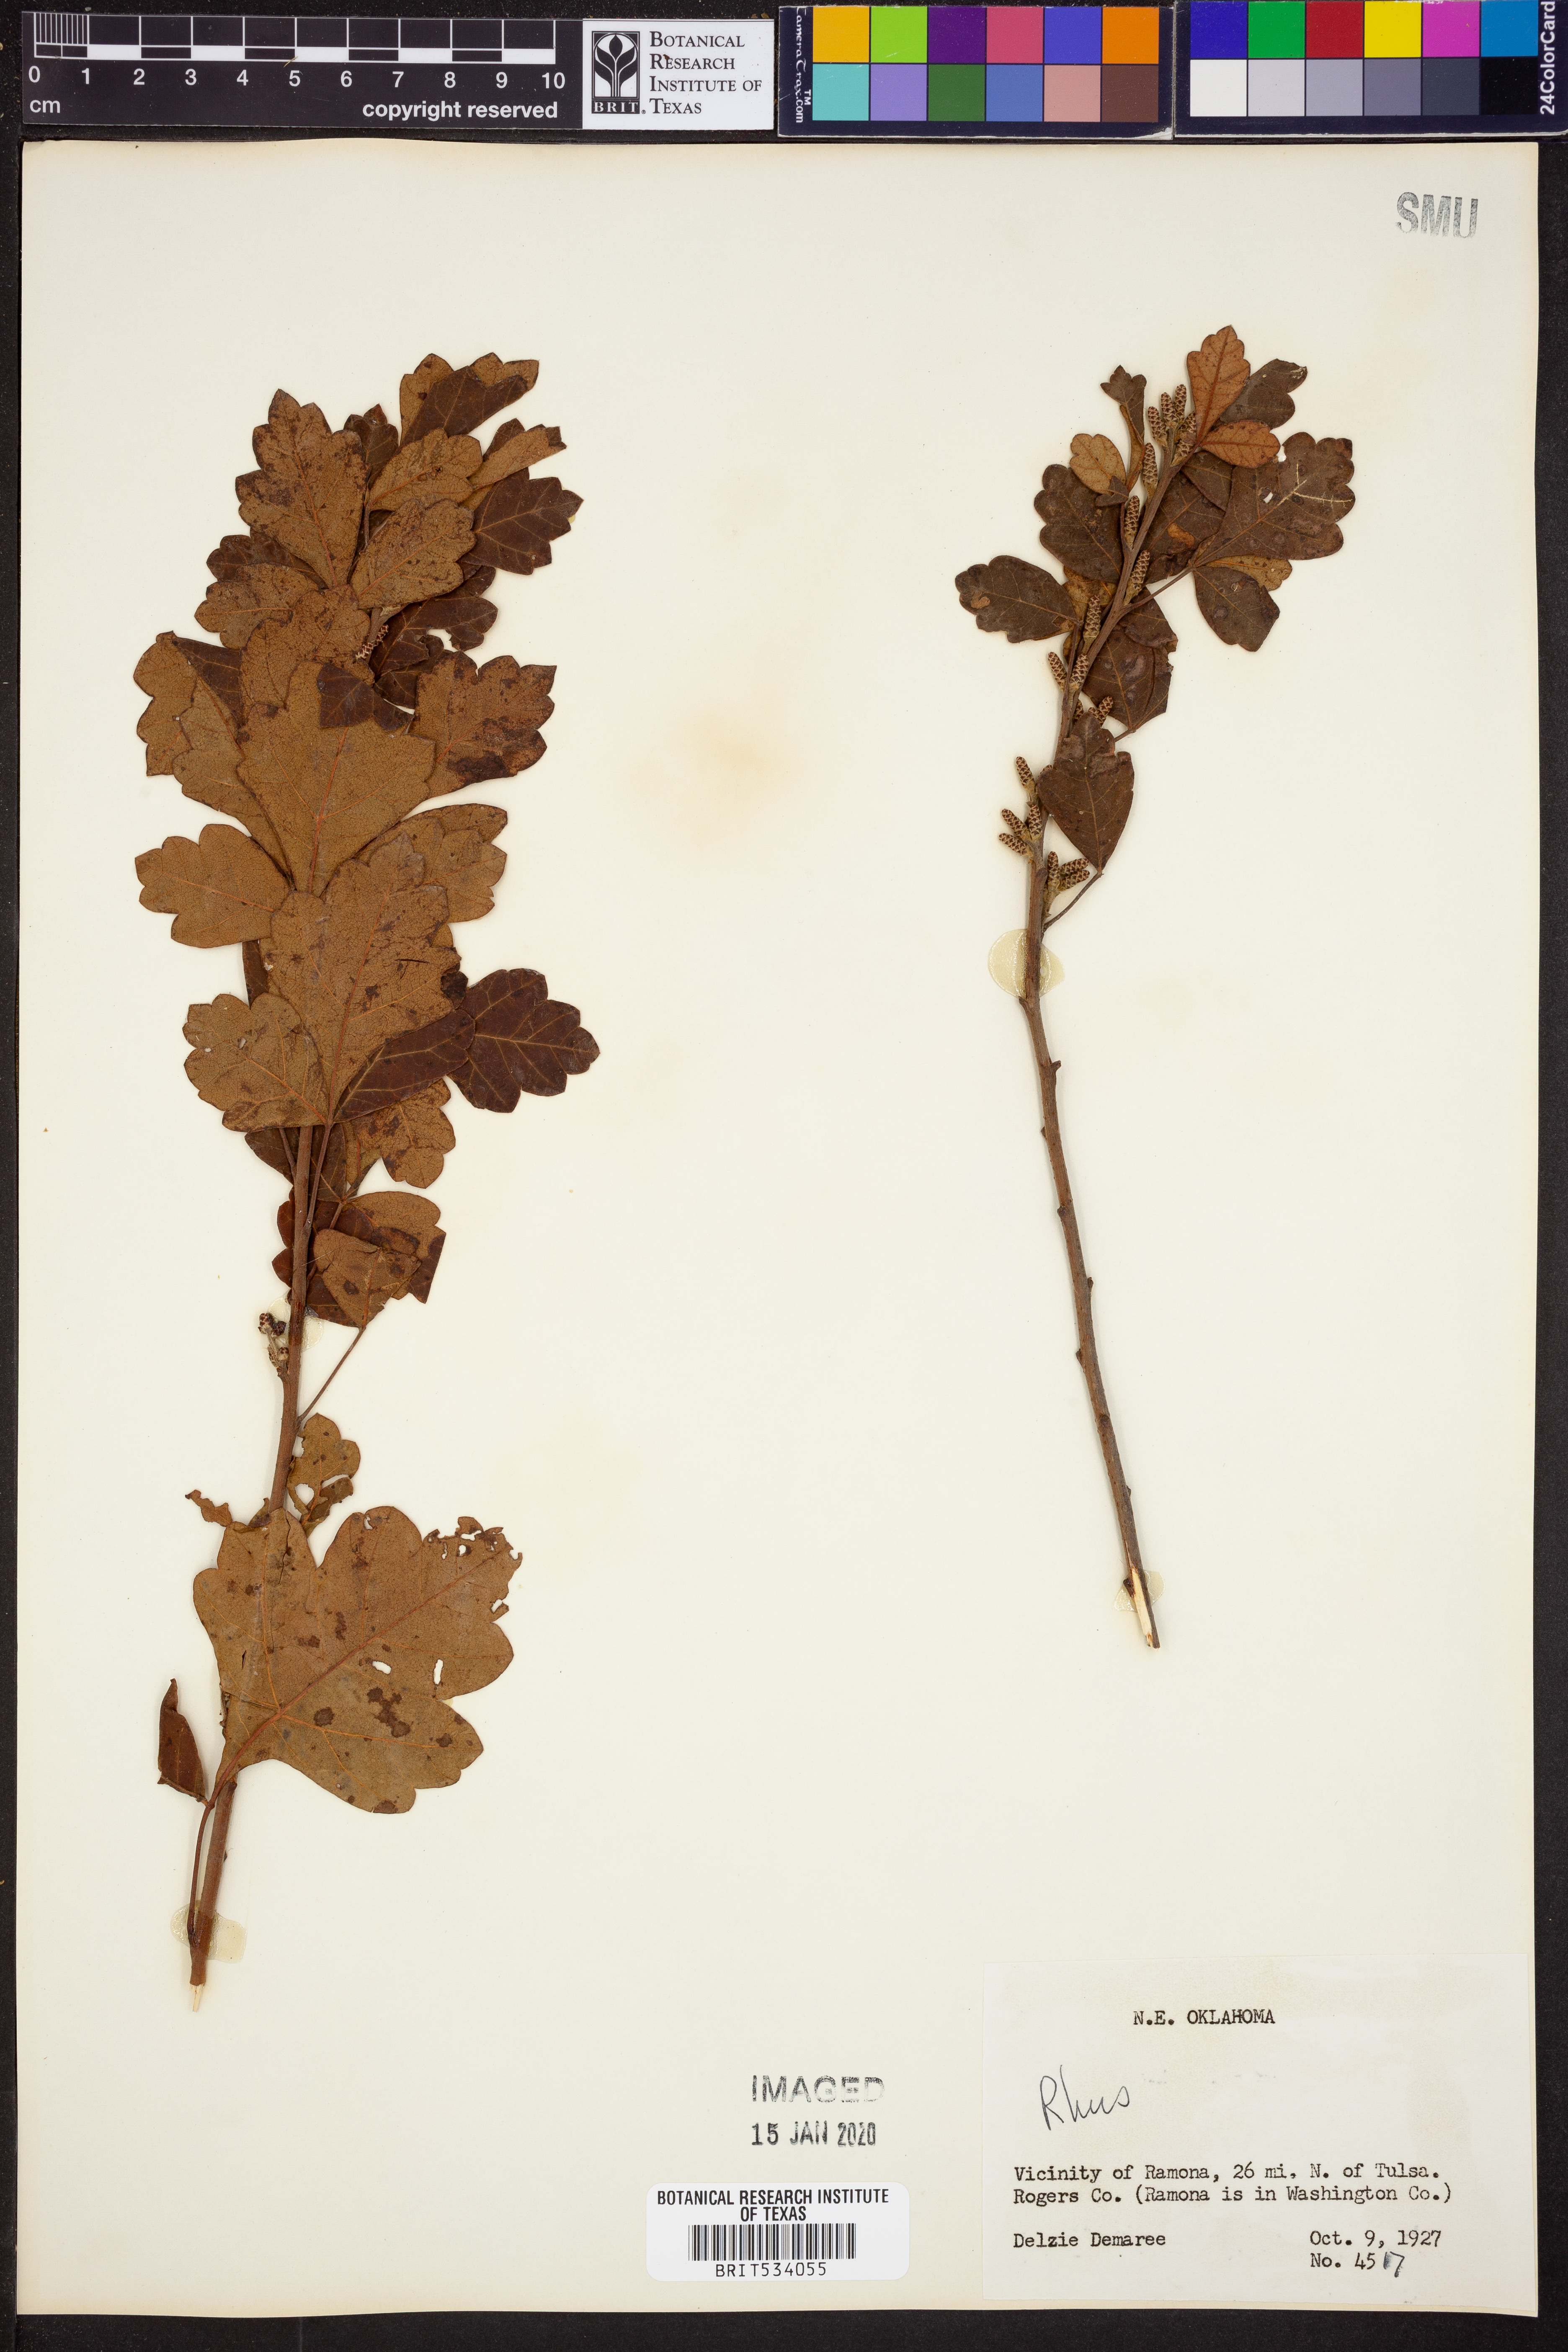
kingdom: Plantae
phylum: Tracheophyta
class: Magnoliopsida
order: Sapindales
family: Anacardiaceae
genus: Rhus
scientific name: Rhus
